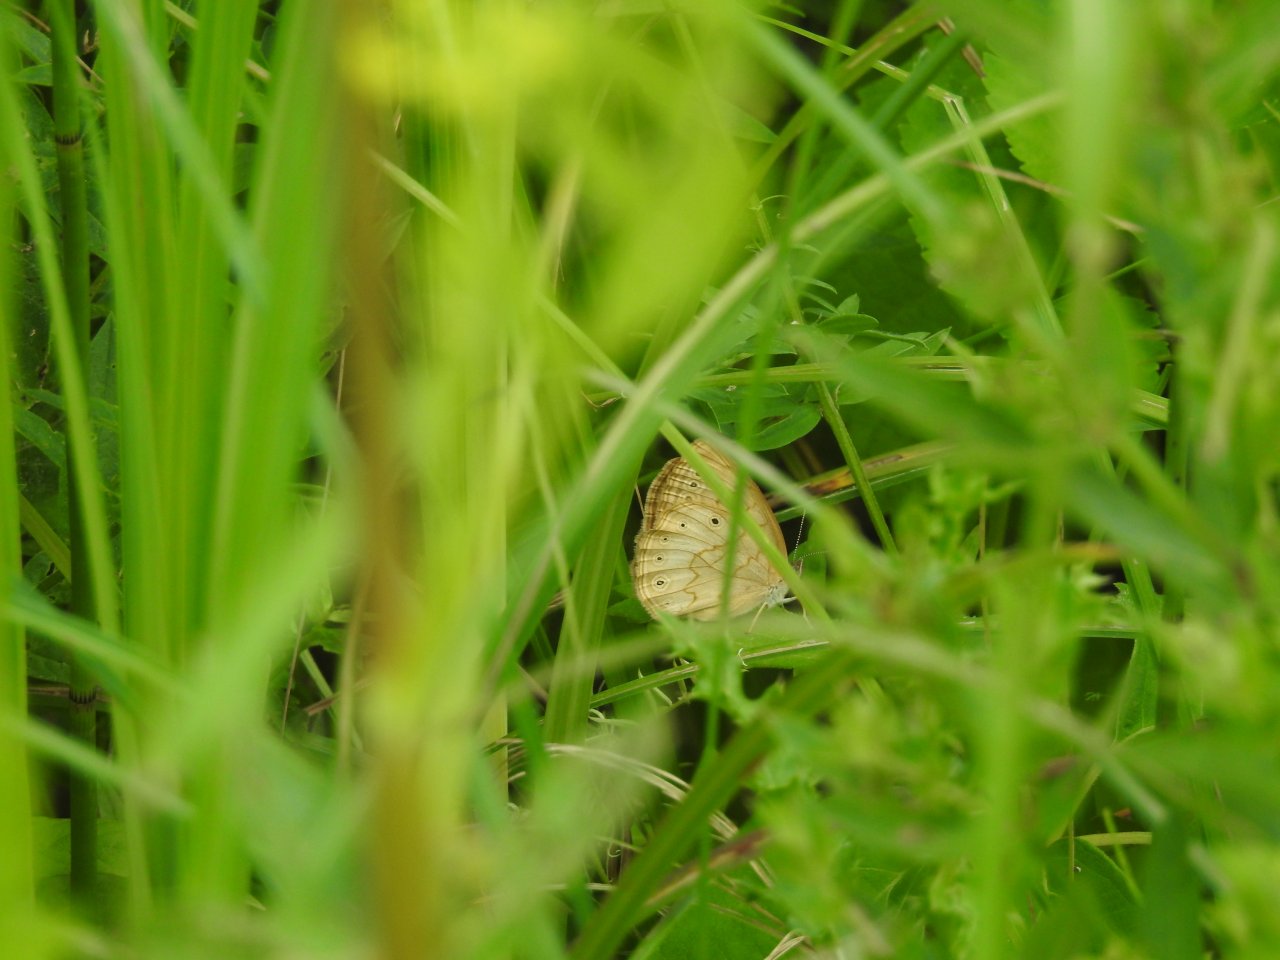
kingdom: Animalia
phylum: Arthropoda
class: Insecta
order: Lepidoptera
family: Nymphalidae
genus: Lethe
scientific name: Lethe eurydice
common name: Eyed Brown
